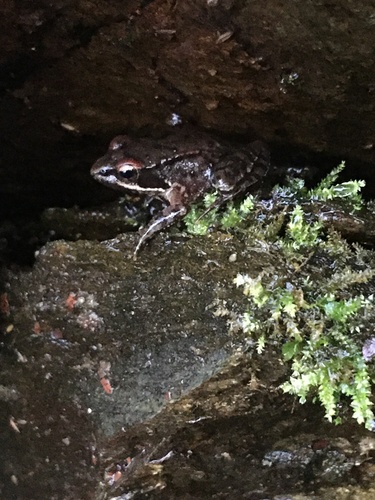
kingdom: Animalia
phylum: Chordata
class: Amphibia
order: Anura
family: Ranidae
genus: Rana
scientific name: Rana iberica
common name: Iberian frog
